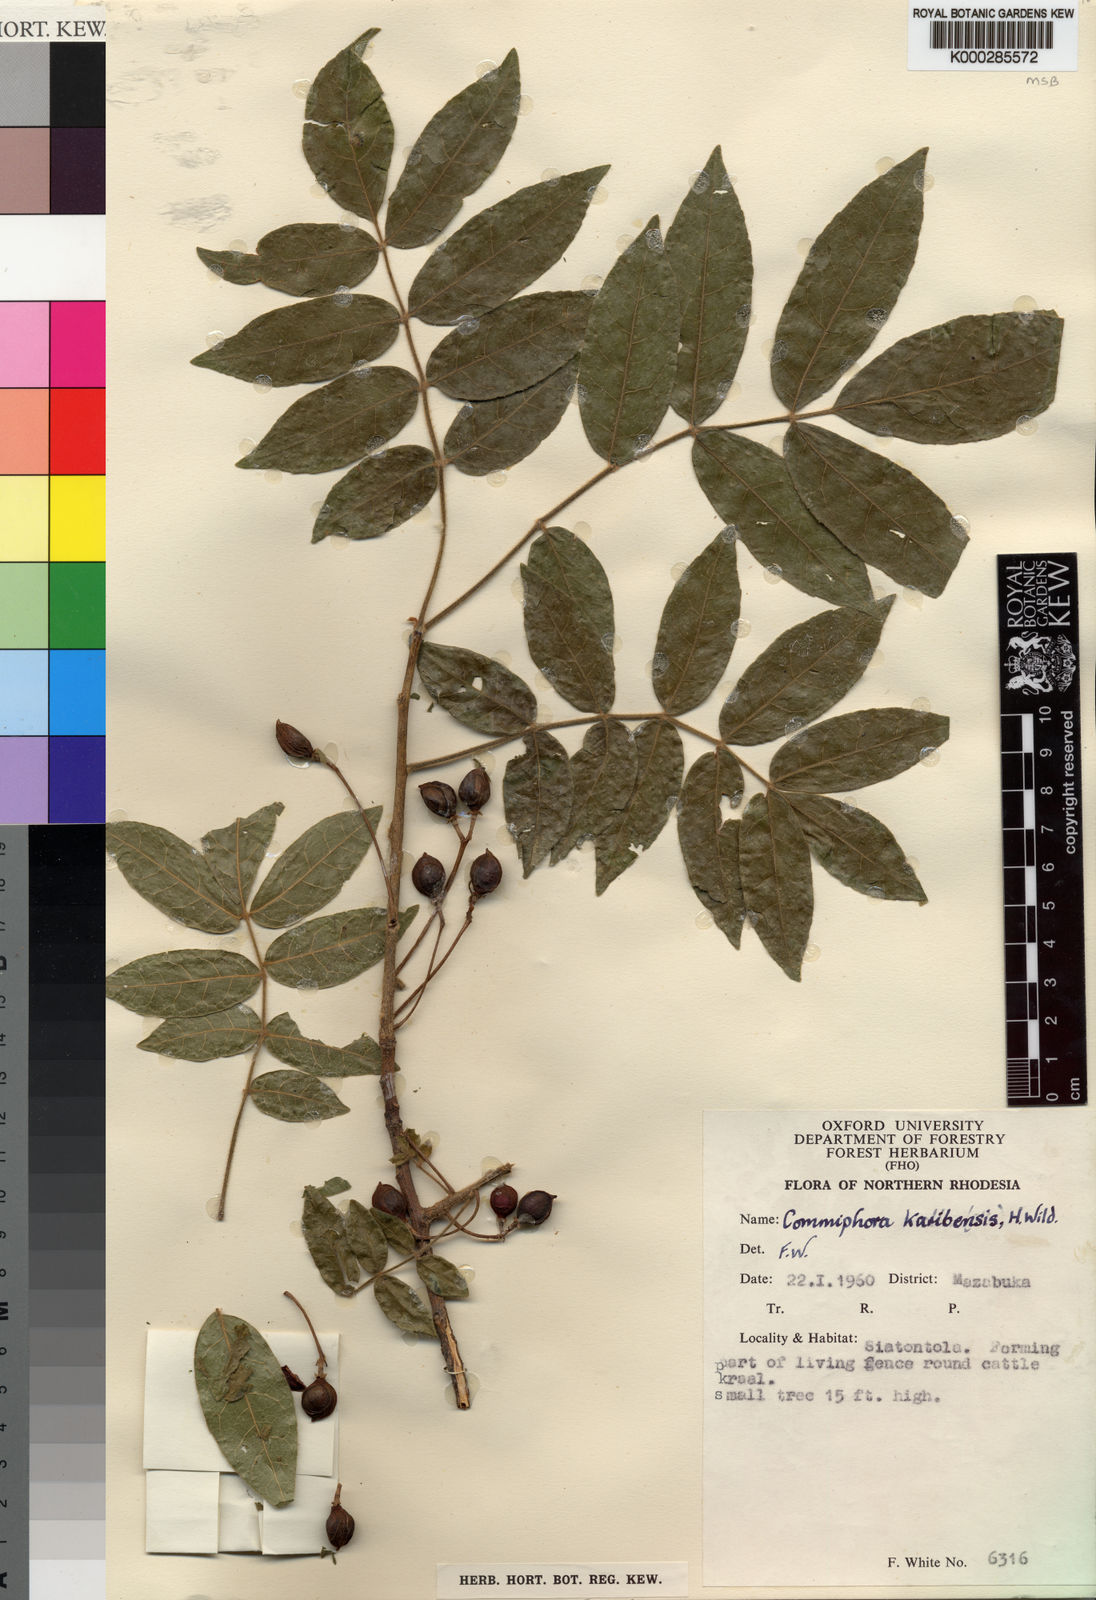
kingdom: Plantae
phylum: Tracheophyta
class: Magnoliopsida
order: Sapindales
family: Burseraceae
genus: Commiphora
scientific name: Commiphora karibensis
